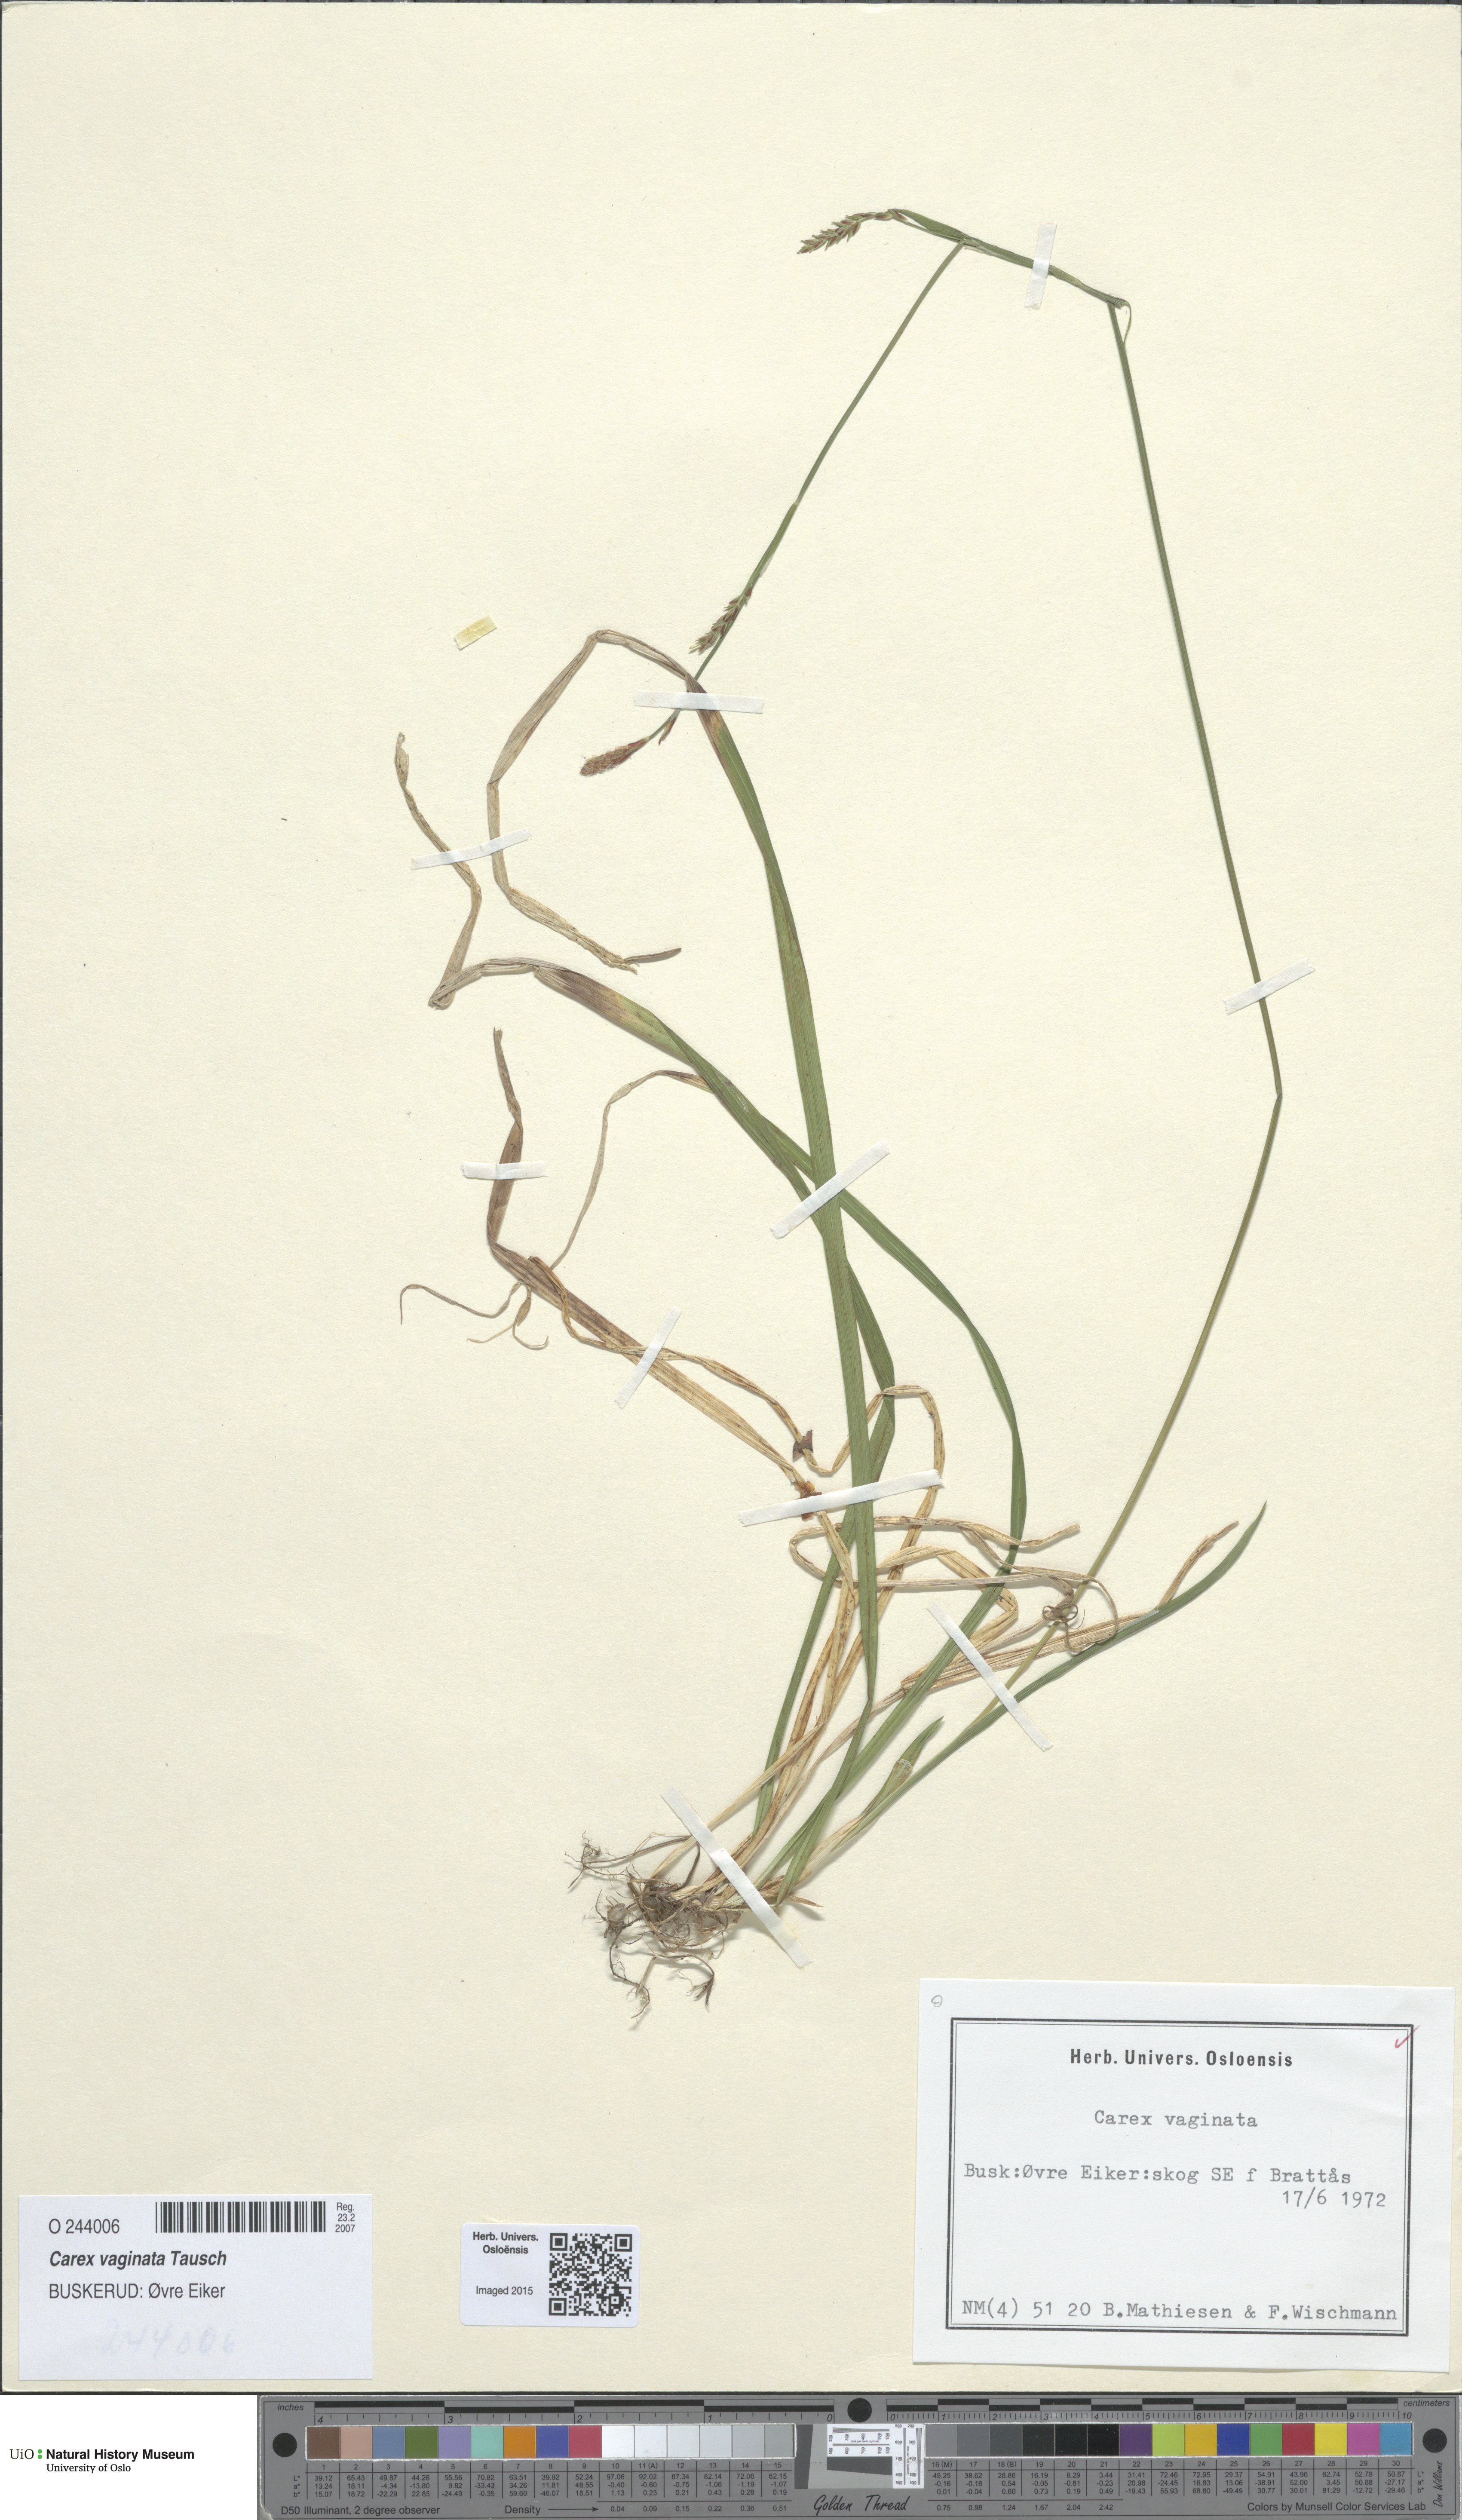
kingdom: Plantae
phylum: Tracheophyta
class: Liliopsida
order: Poales
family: Cyperaceae
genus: Carex
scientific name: Carex vaginata
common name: Sheathed sedge
